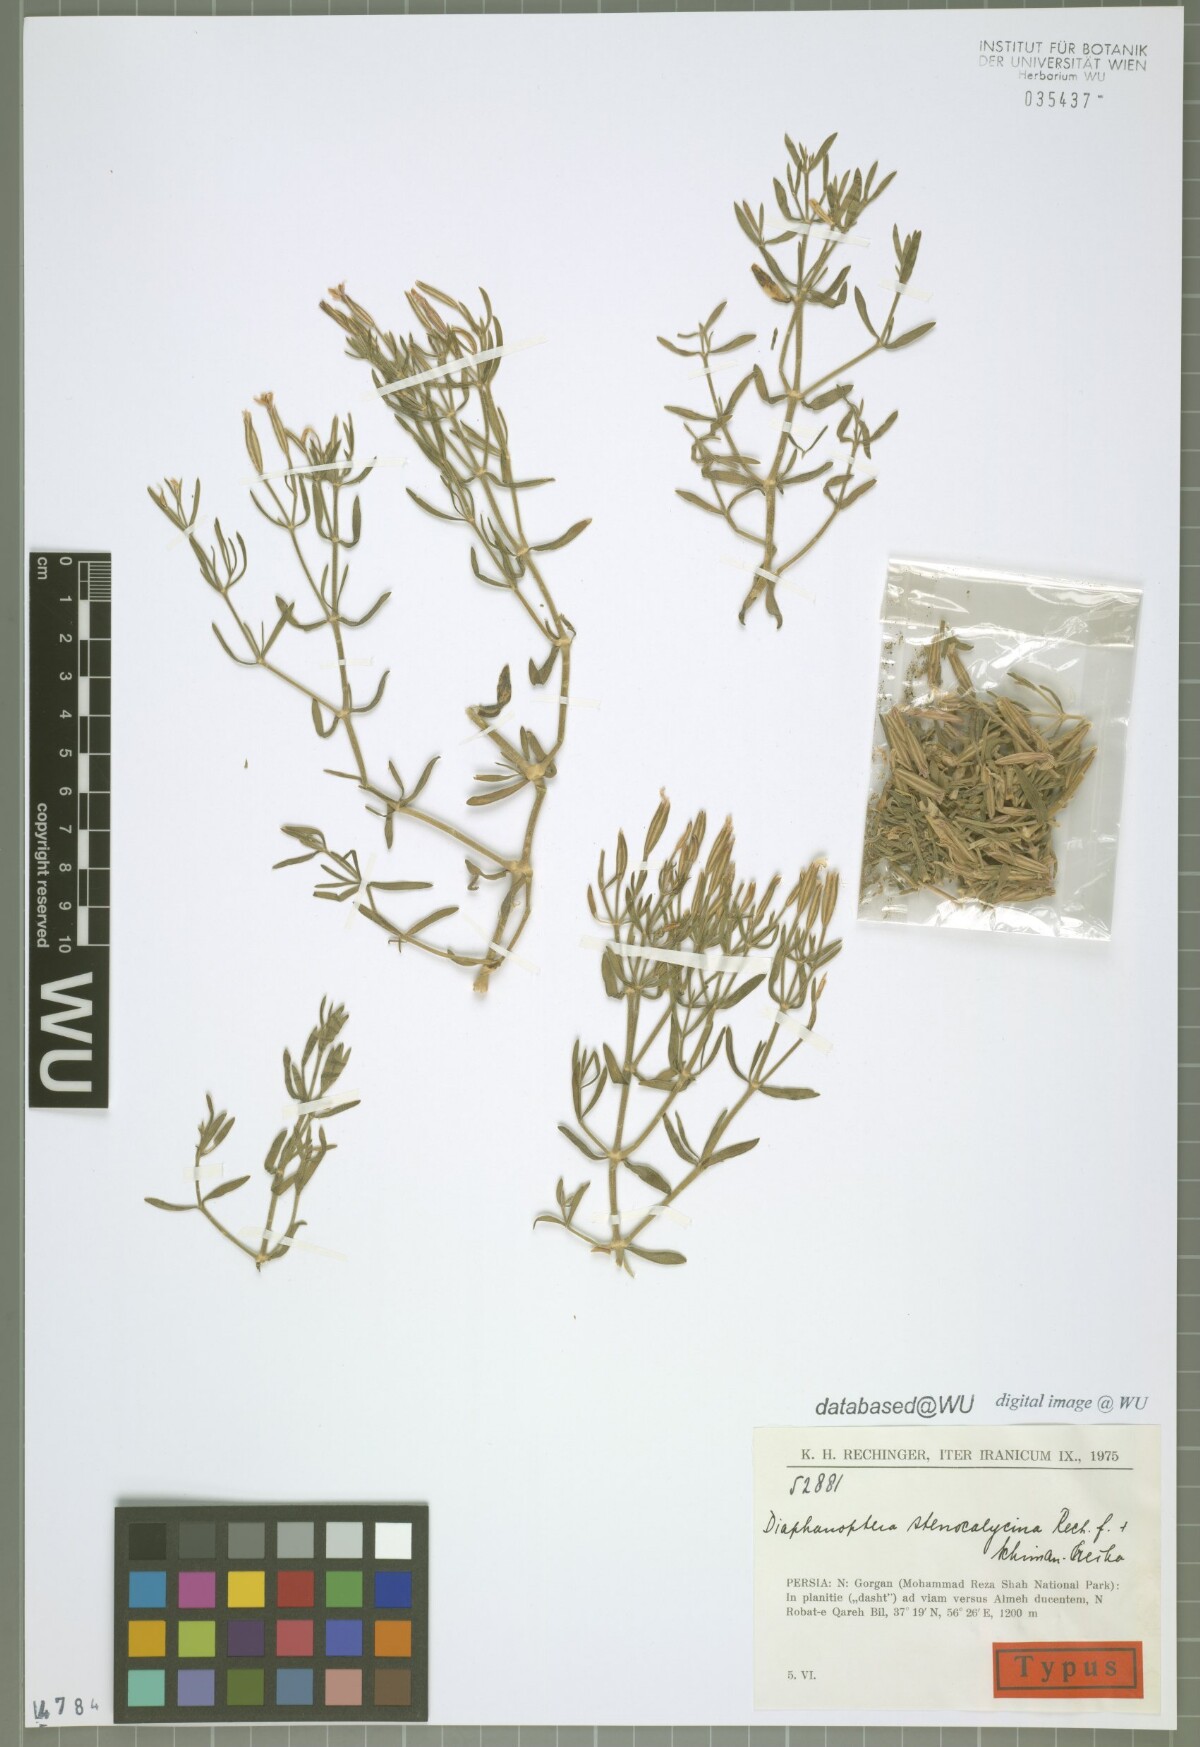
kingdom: Plantae
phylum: Tracheophyta
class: Magnoliopsida
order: Caryophyllales
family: Caryophyllaceae
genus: Acanthophyllum
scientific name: Acanthophyllum stenocalycinum
